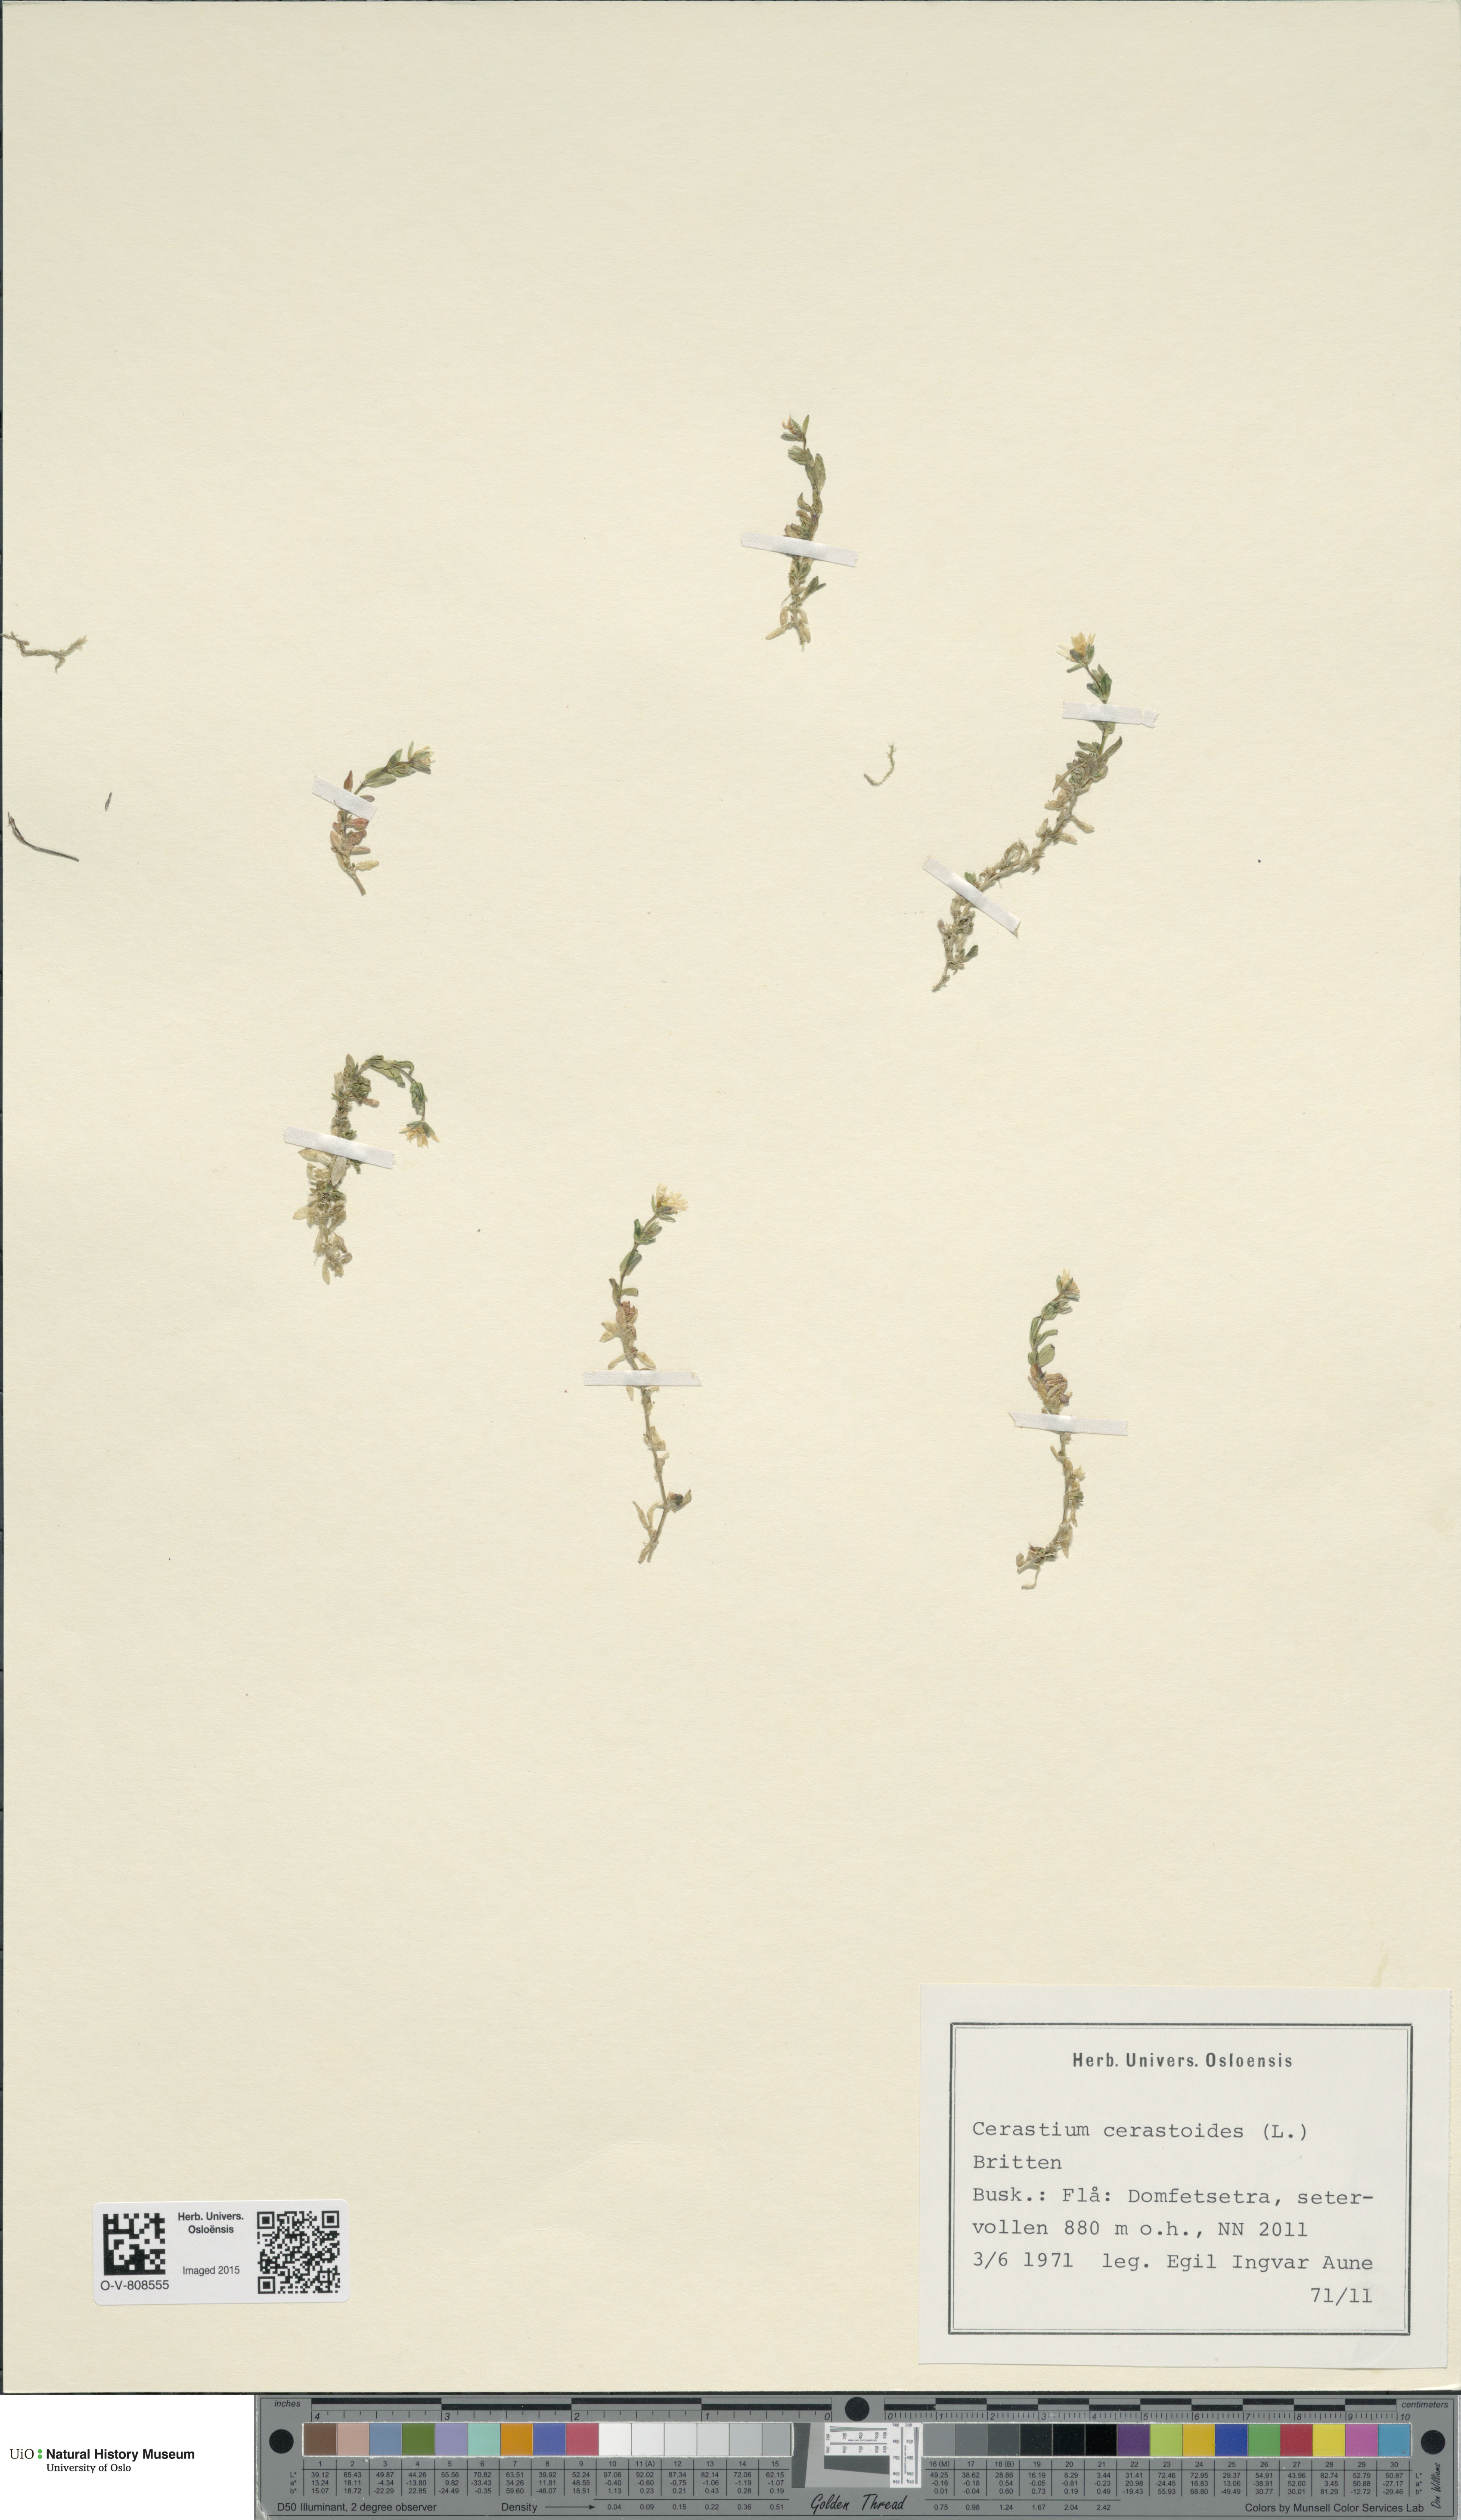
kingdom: Plantae
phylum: Tracheophyta
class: Magnoliopsida
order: Caryophyllales
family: Caryophyllaceae
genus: Dichodon
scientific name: Dichodon cerastoides
